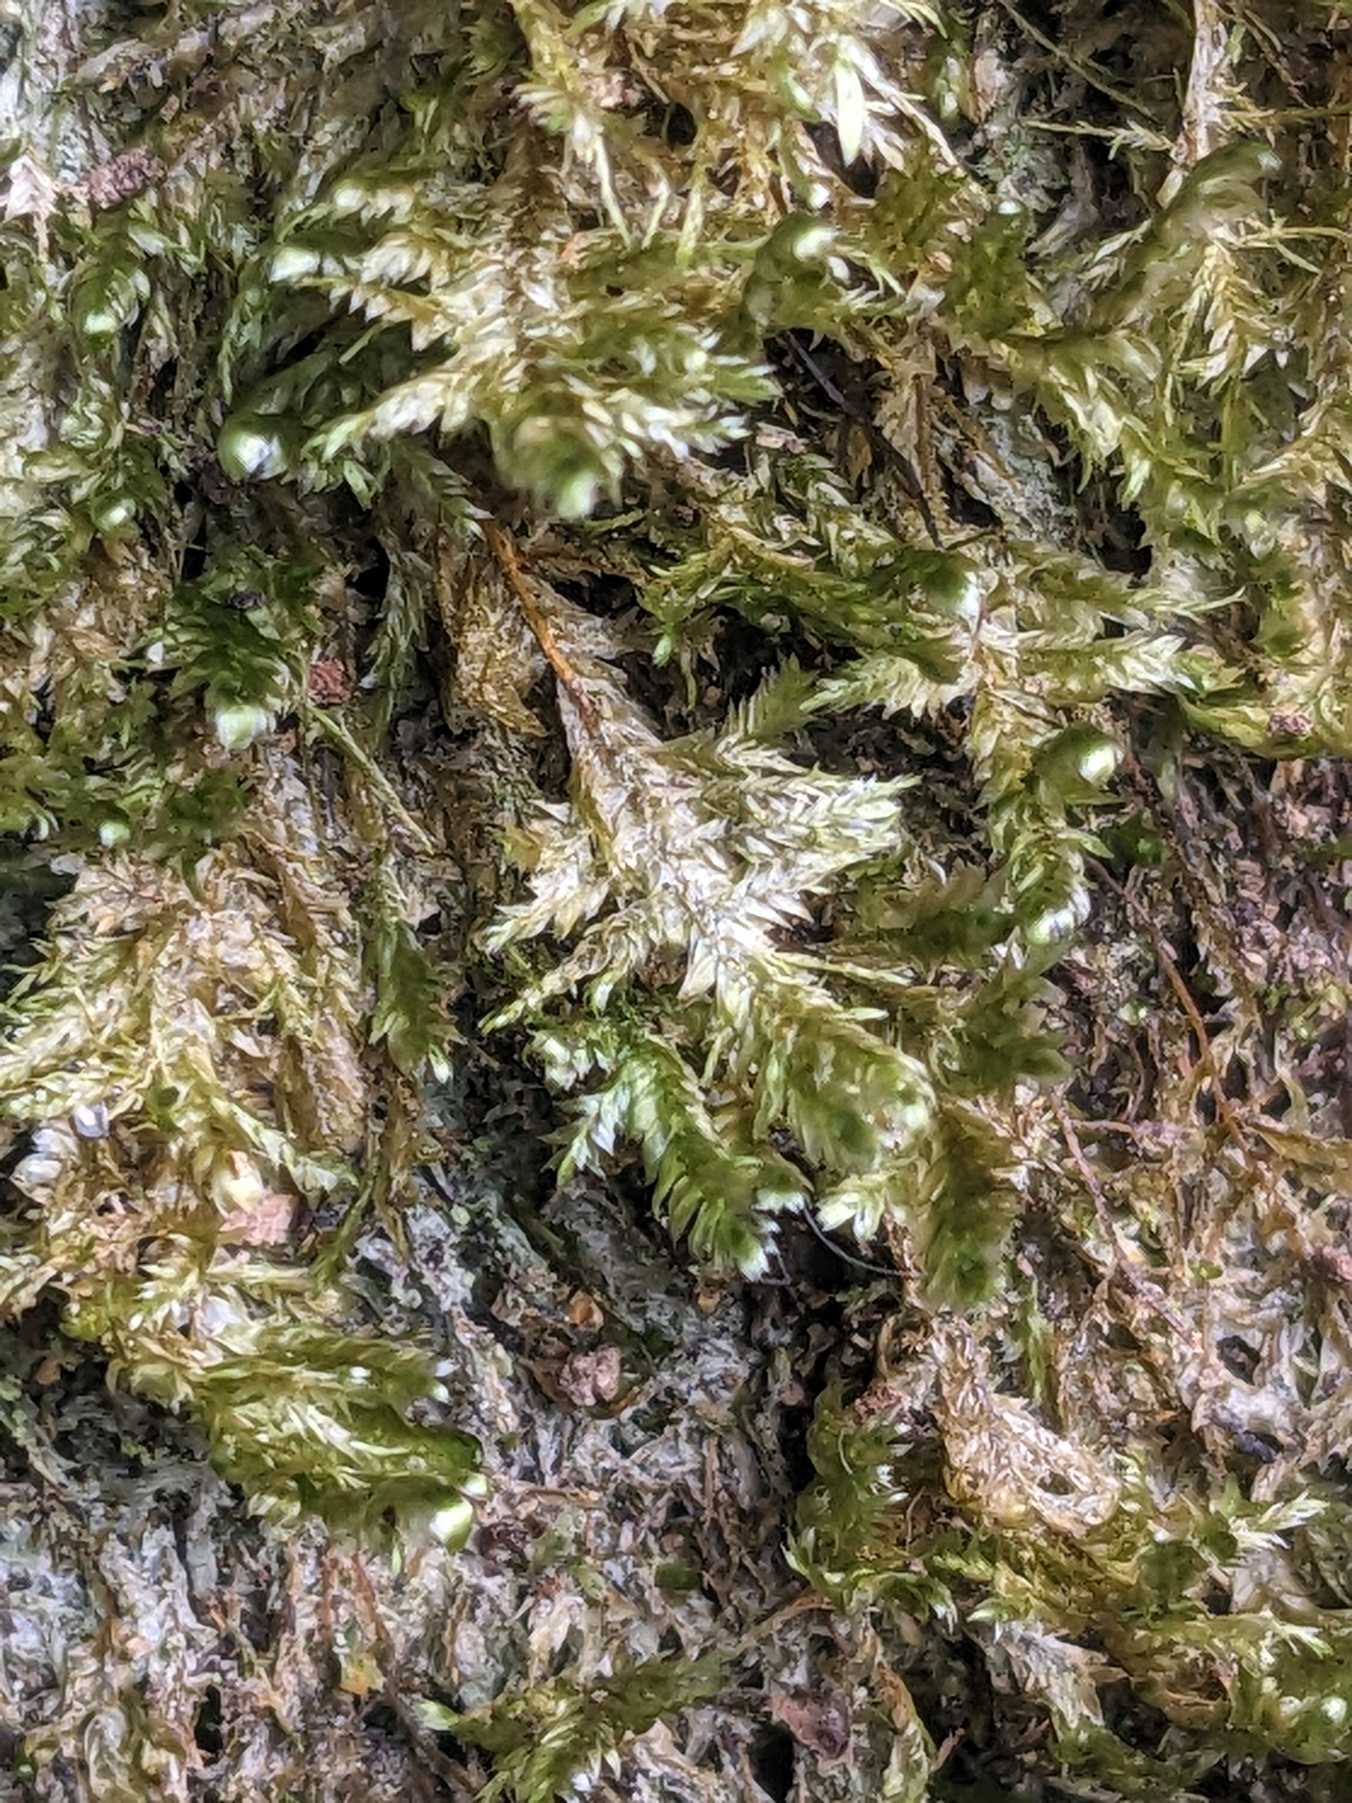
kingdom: Plantae
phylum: Bryophyta
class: Bryopsida
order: Hypnales
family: Neckeraceae
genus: Alleniella
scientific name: Alleniella complanata
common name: Almindelig fladmos
